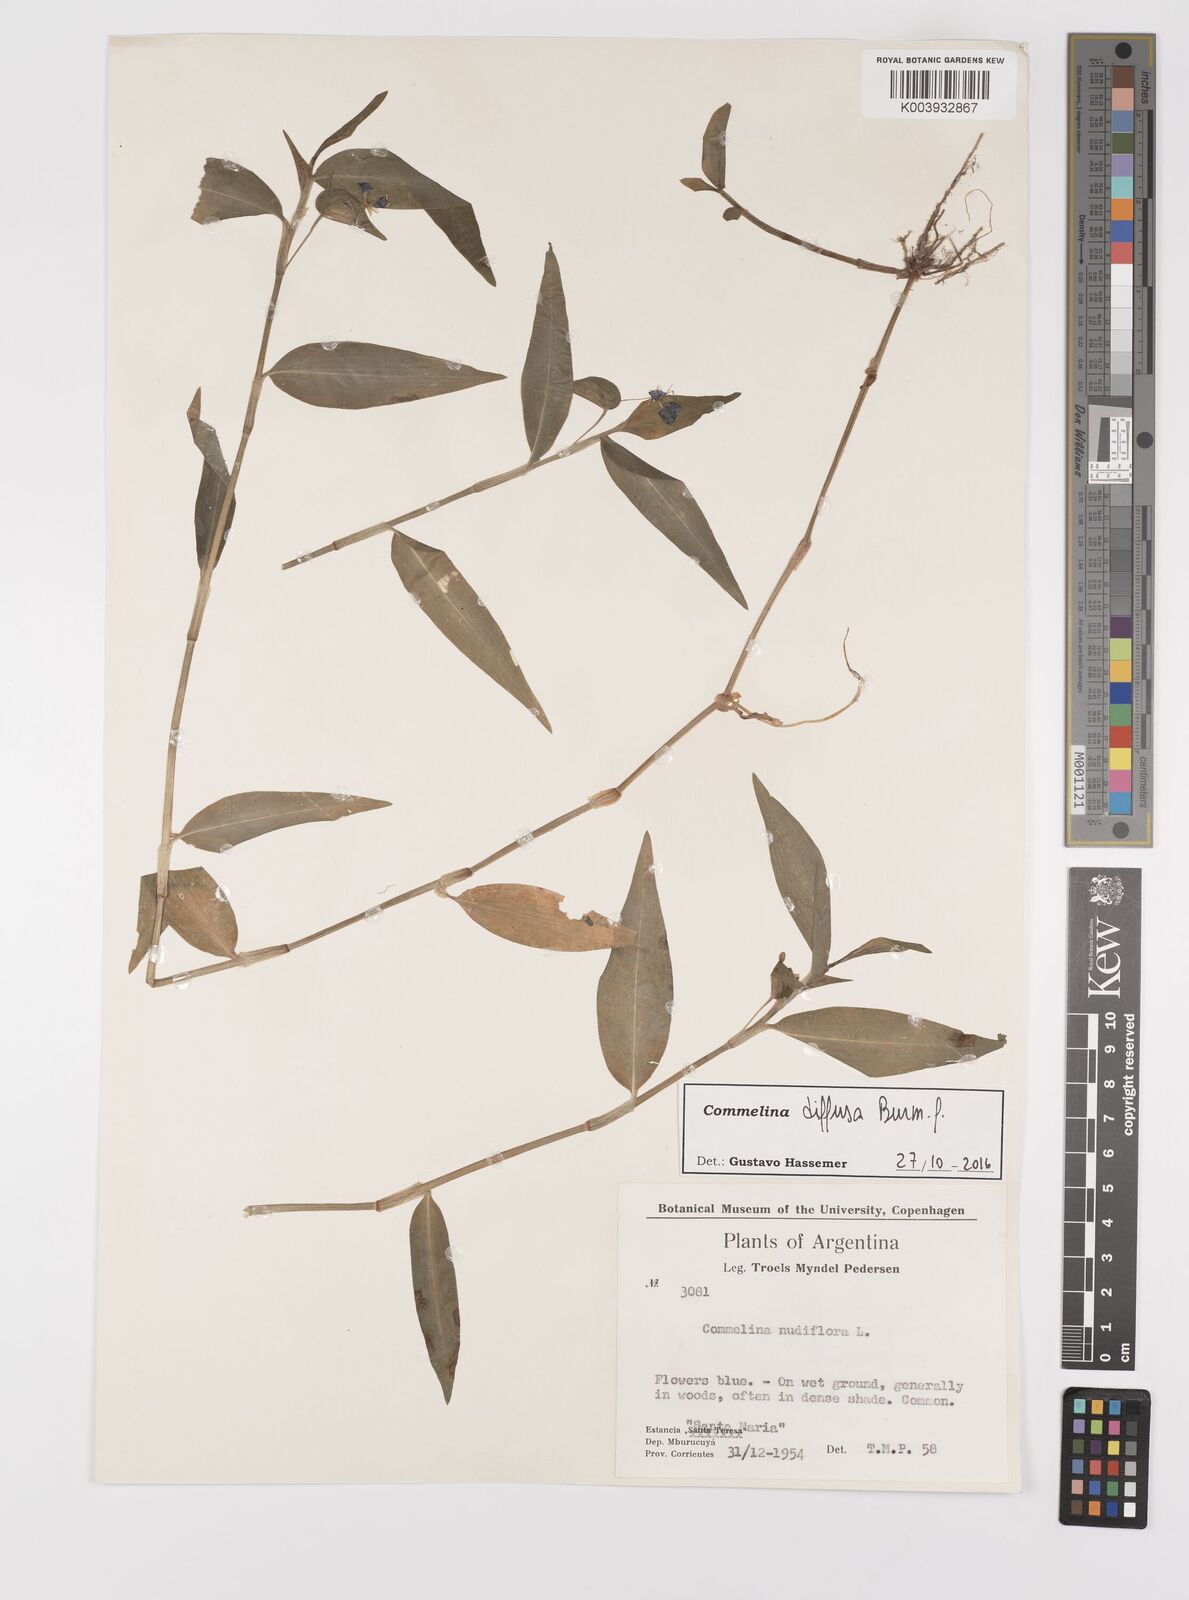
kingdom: Plantae
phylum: Tracheophyta
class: Liliopsida
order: Commelinales
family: Commelinaceae
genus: Commelina
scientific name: Commelina diffusa
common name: Climbing dayflower
